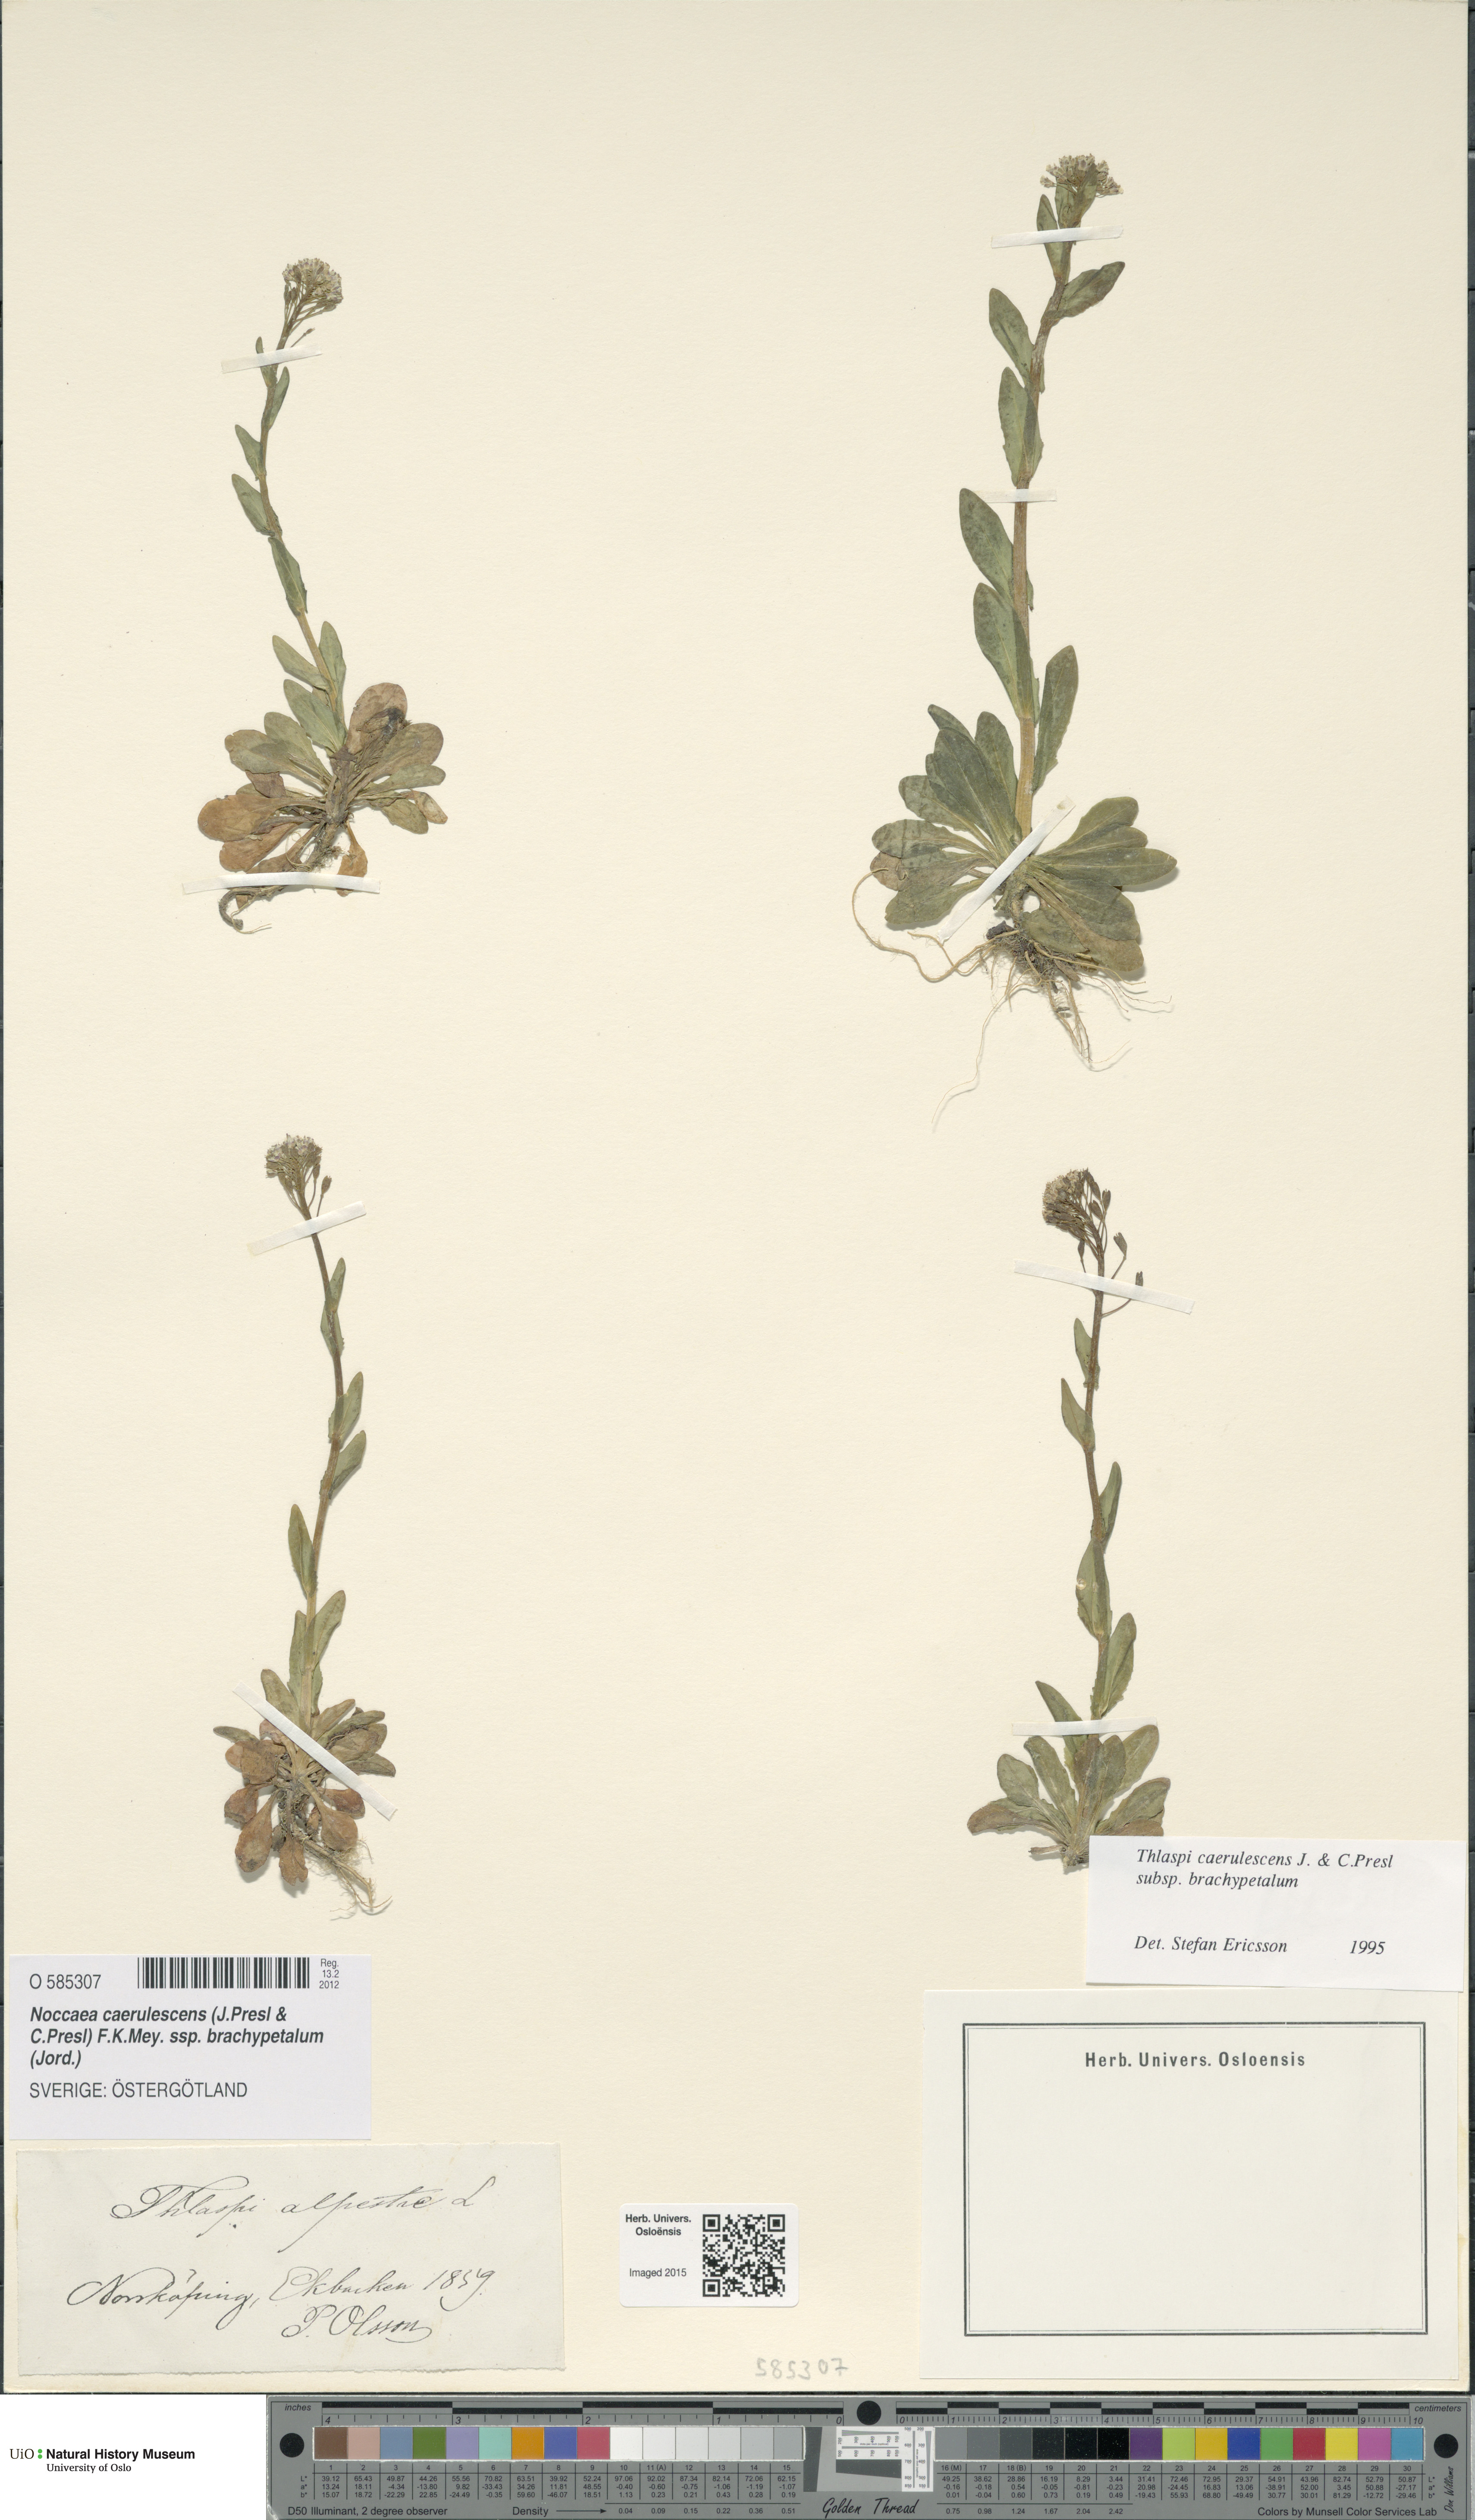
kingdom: Plantae
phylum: Tracheophyta
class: Magnoliopsida
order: Brassicales
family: Brassicaceae
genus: Noccaea
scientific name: Noccaea brachypetala
